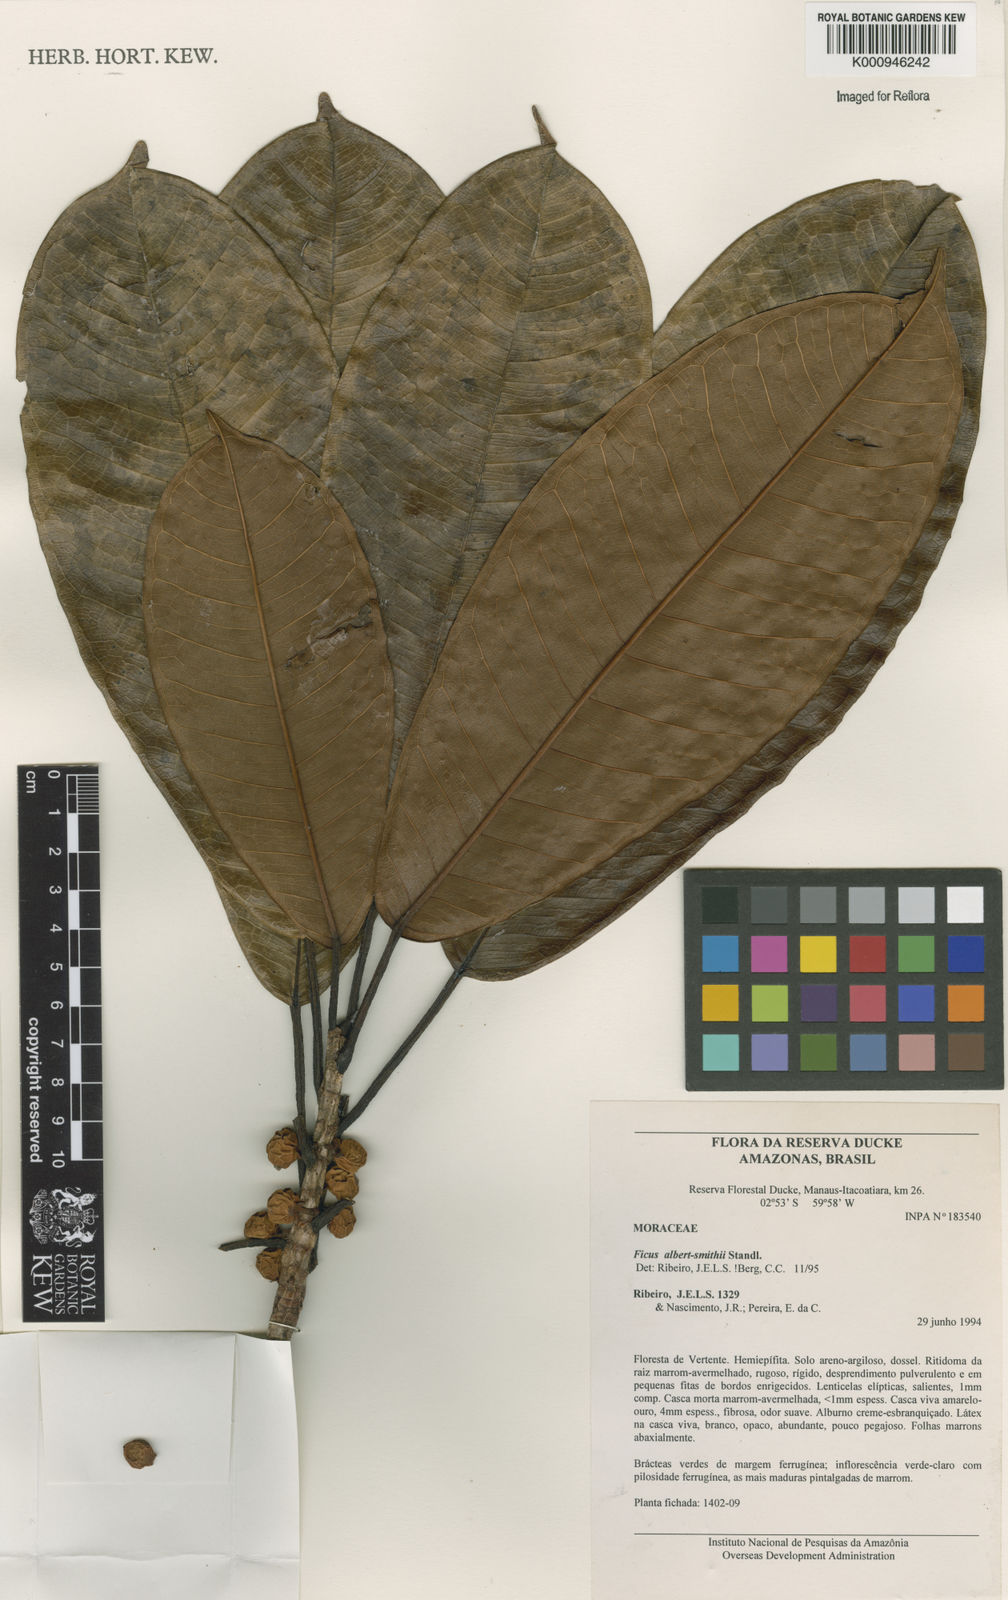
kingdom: Plantae
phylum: Tracheophyta
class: Magnoliopsida
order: Rosales
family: Moraceae
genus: Ficus
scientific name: Ficus albert-smithii
